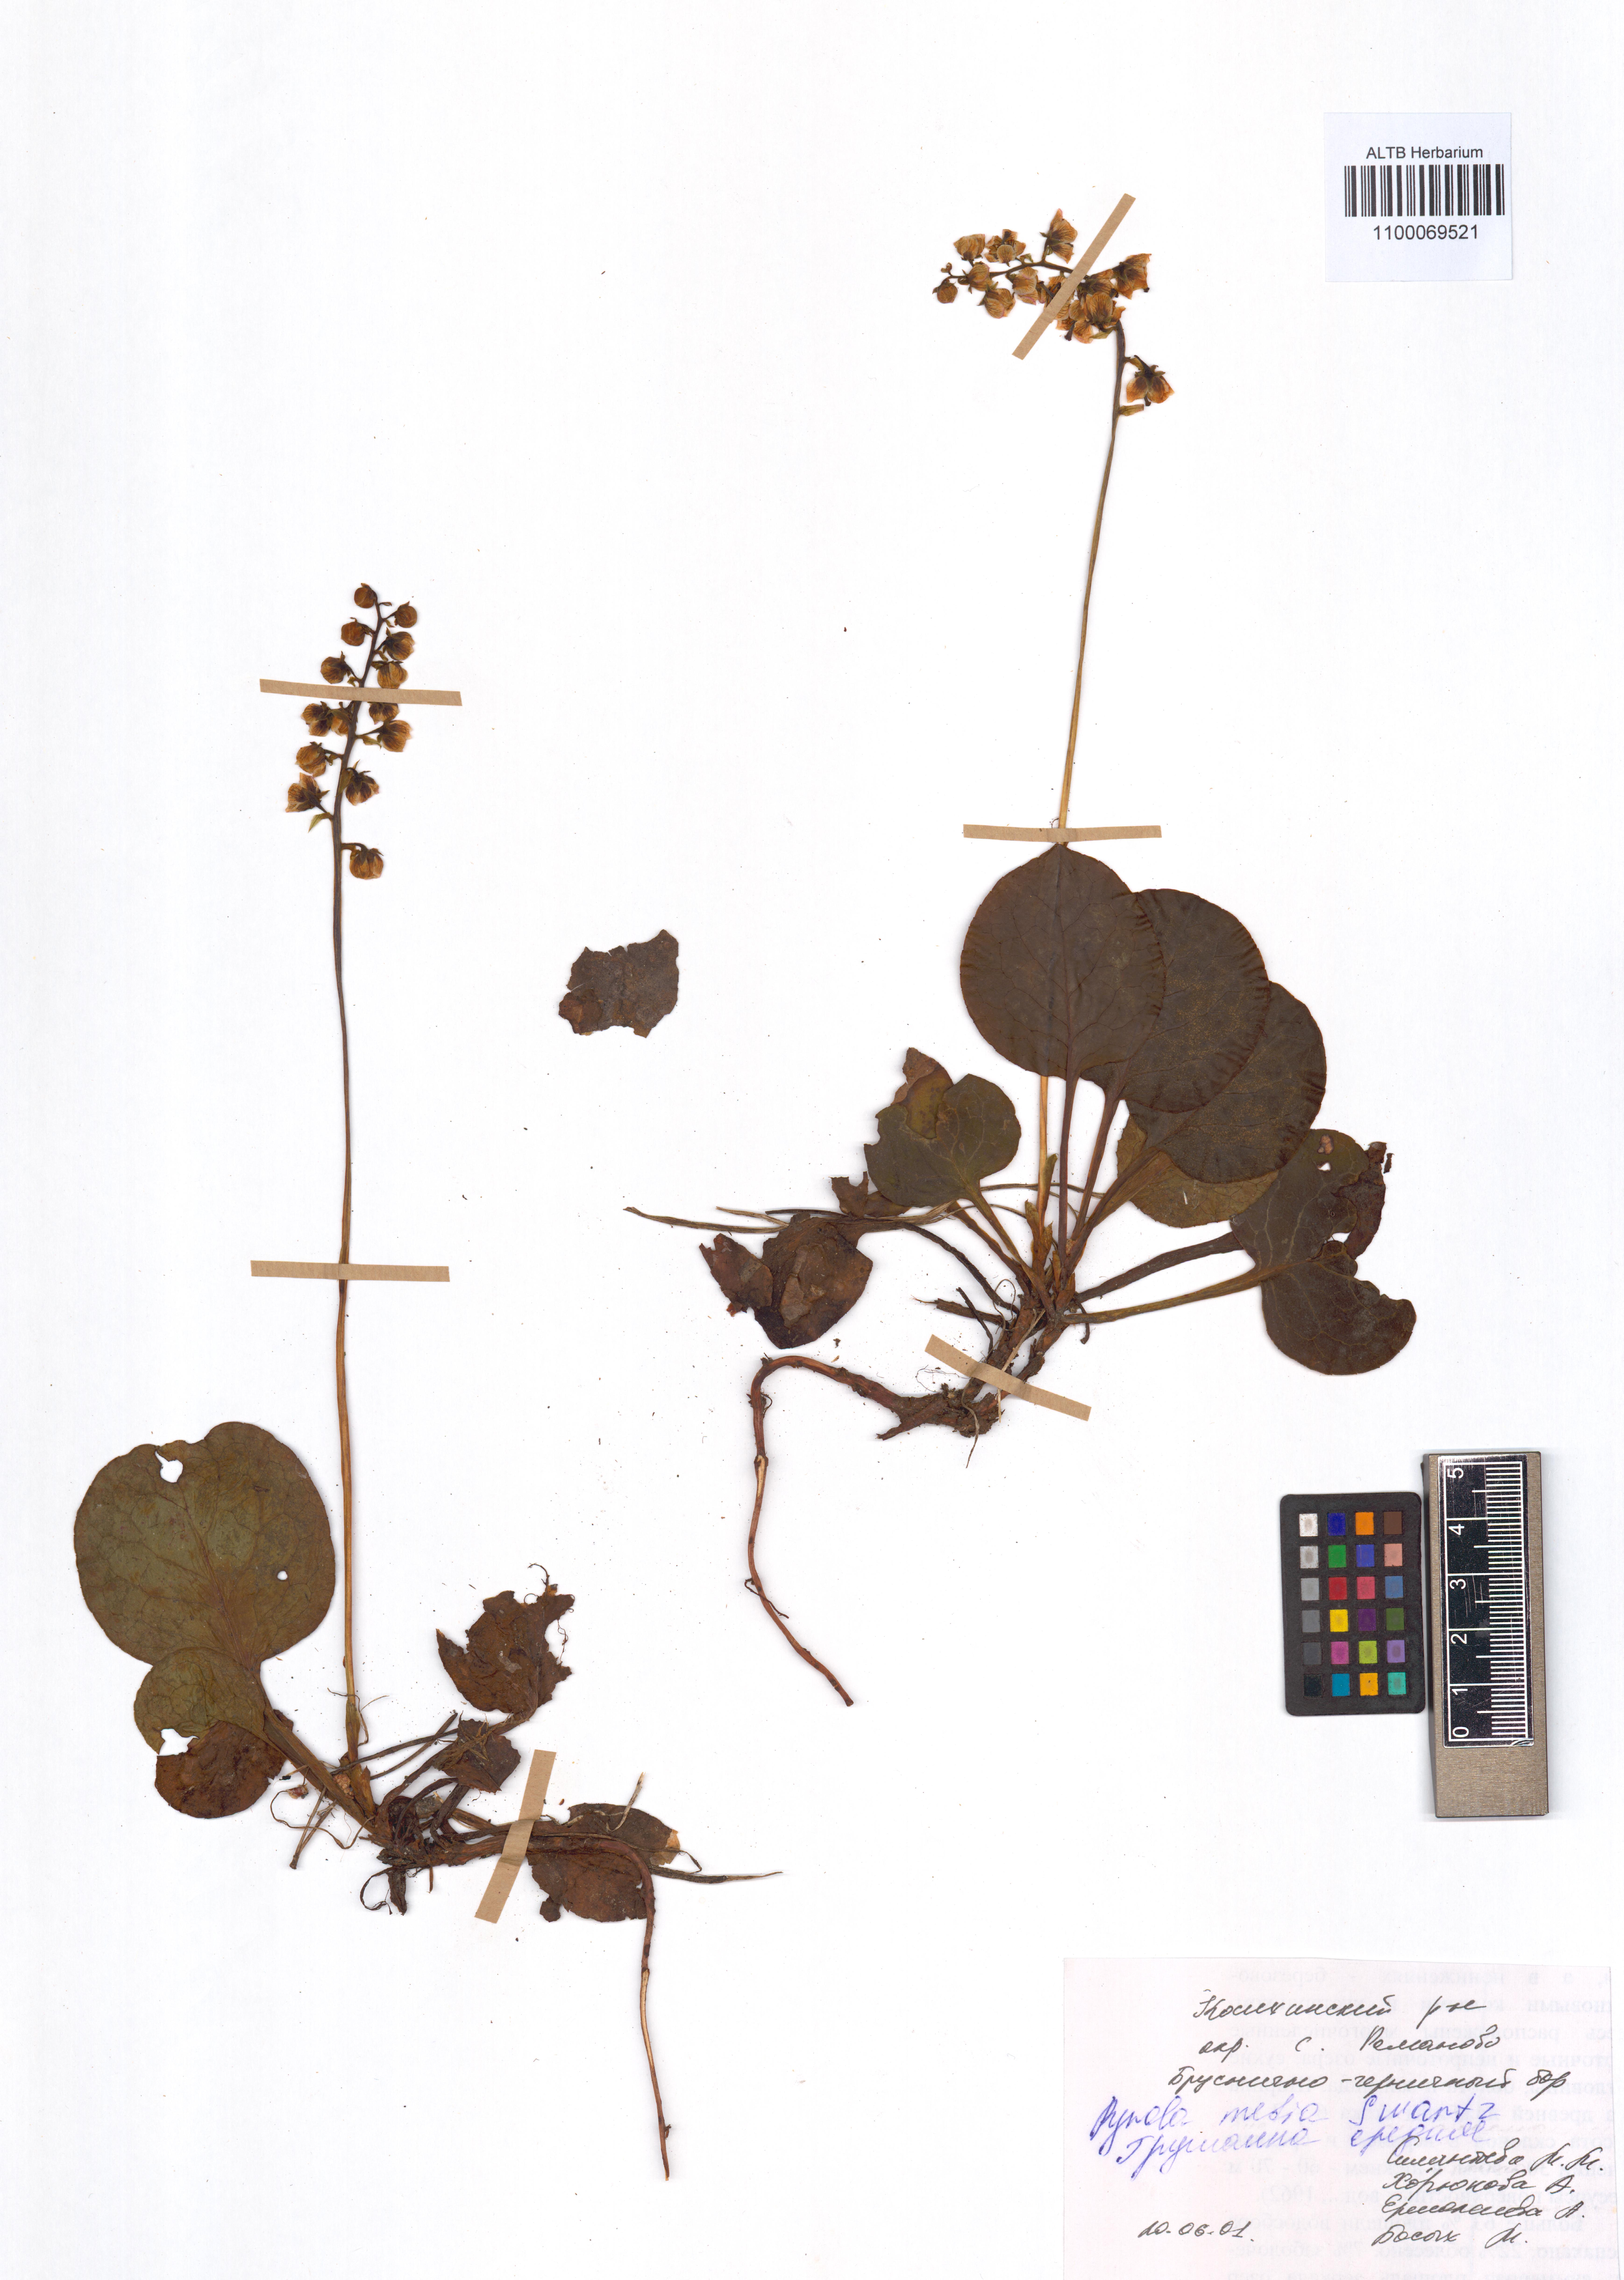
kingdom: Plantae
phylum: Tracheophyta
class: Magnoliopsida
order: Ericales
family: Ericaceae
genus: Pyrola
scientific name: Pyrola media
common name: Intermediate wintergreen
